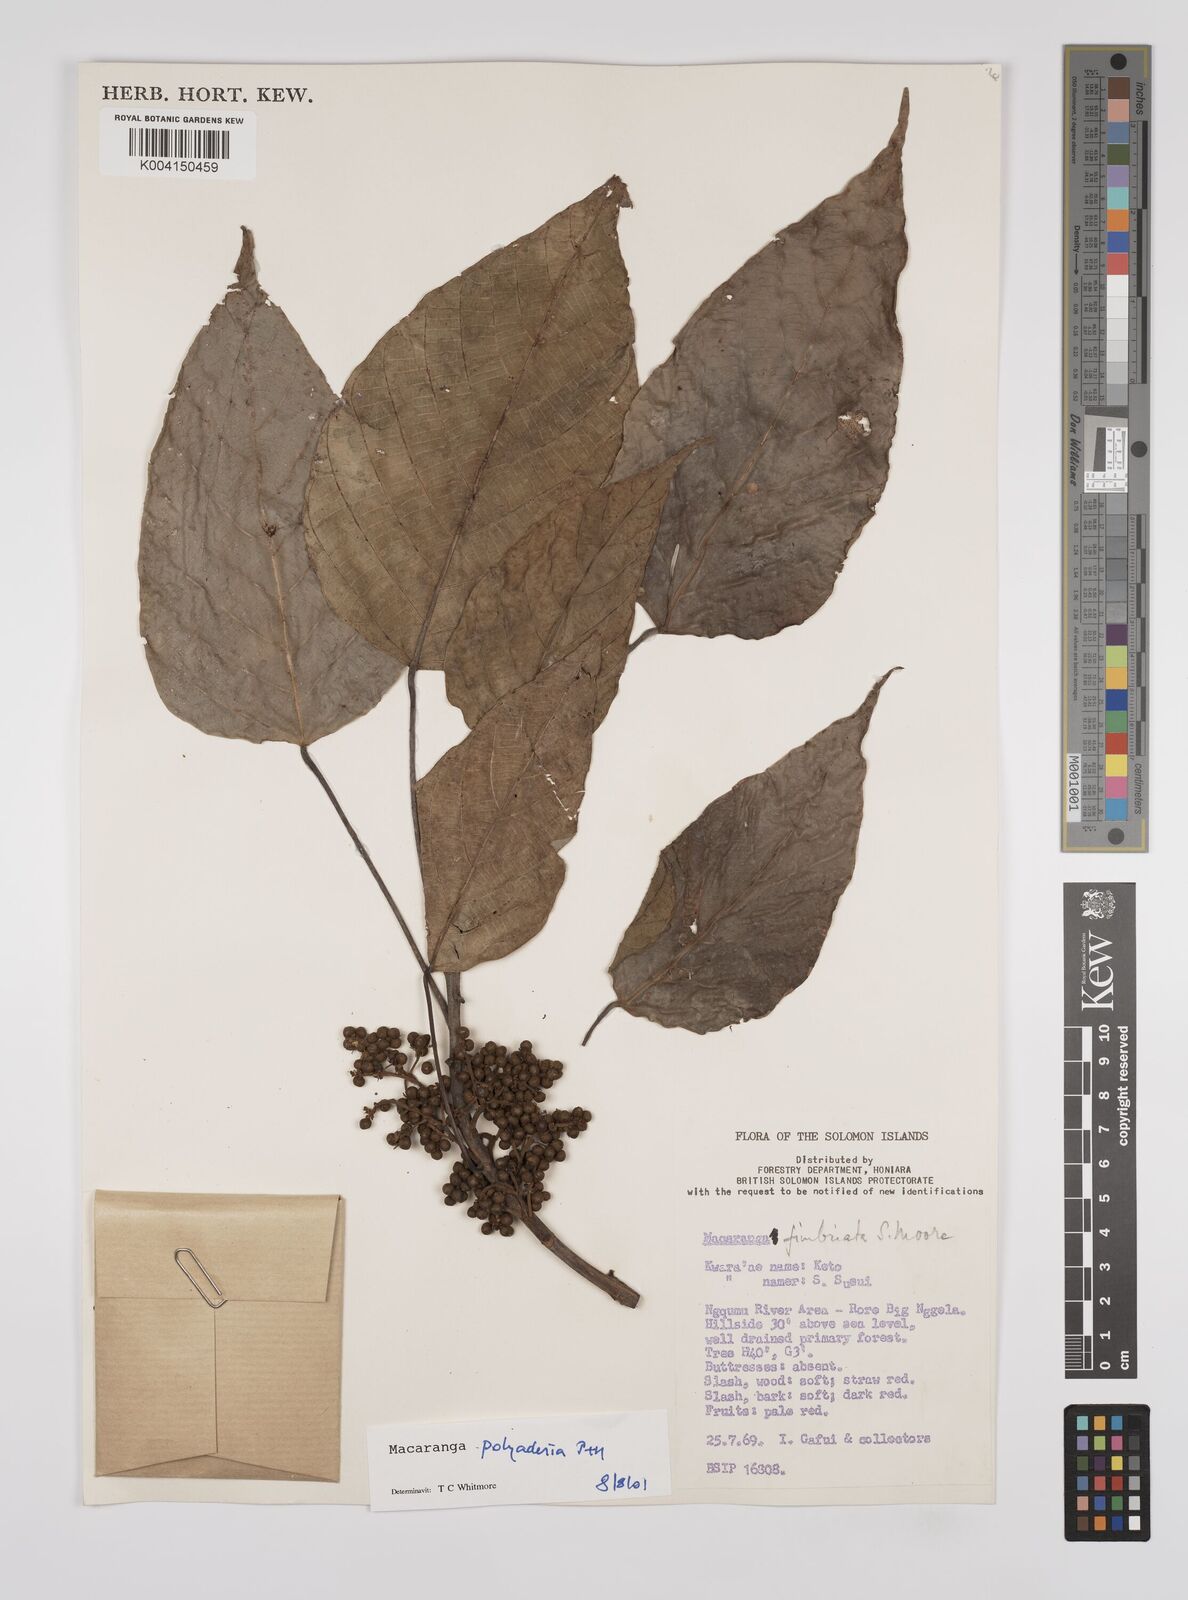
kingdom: Plantae
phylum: Tracheophyta
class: Magnoliopsida
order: Malpighiales
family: Euphorbiaceae
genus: Macaranga
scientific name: Macaranga polyadenia
